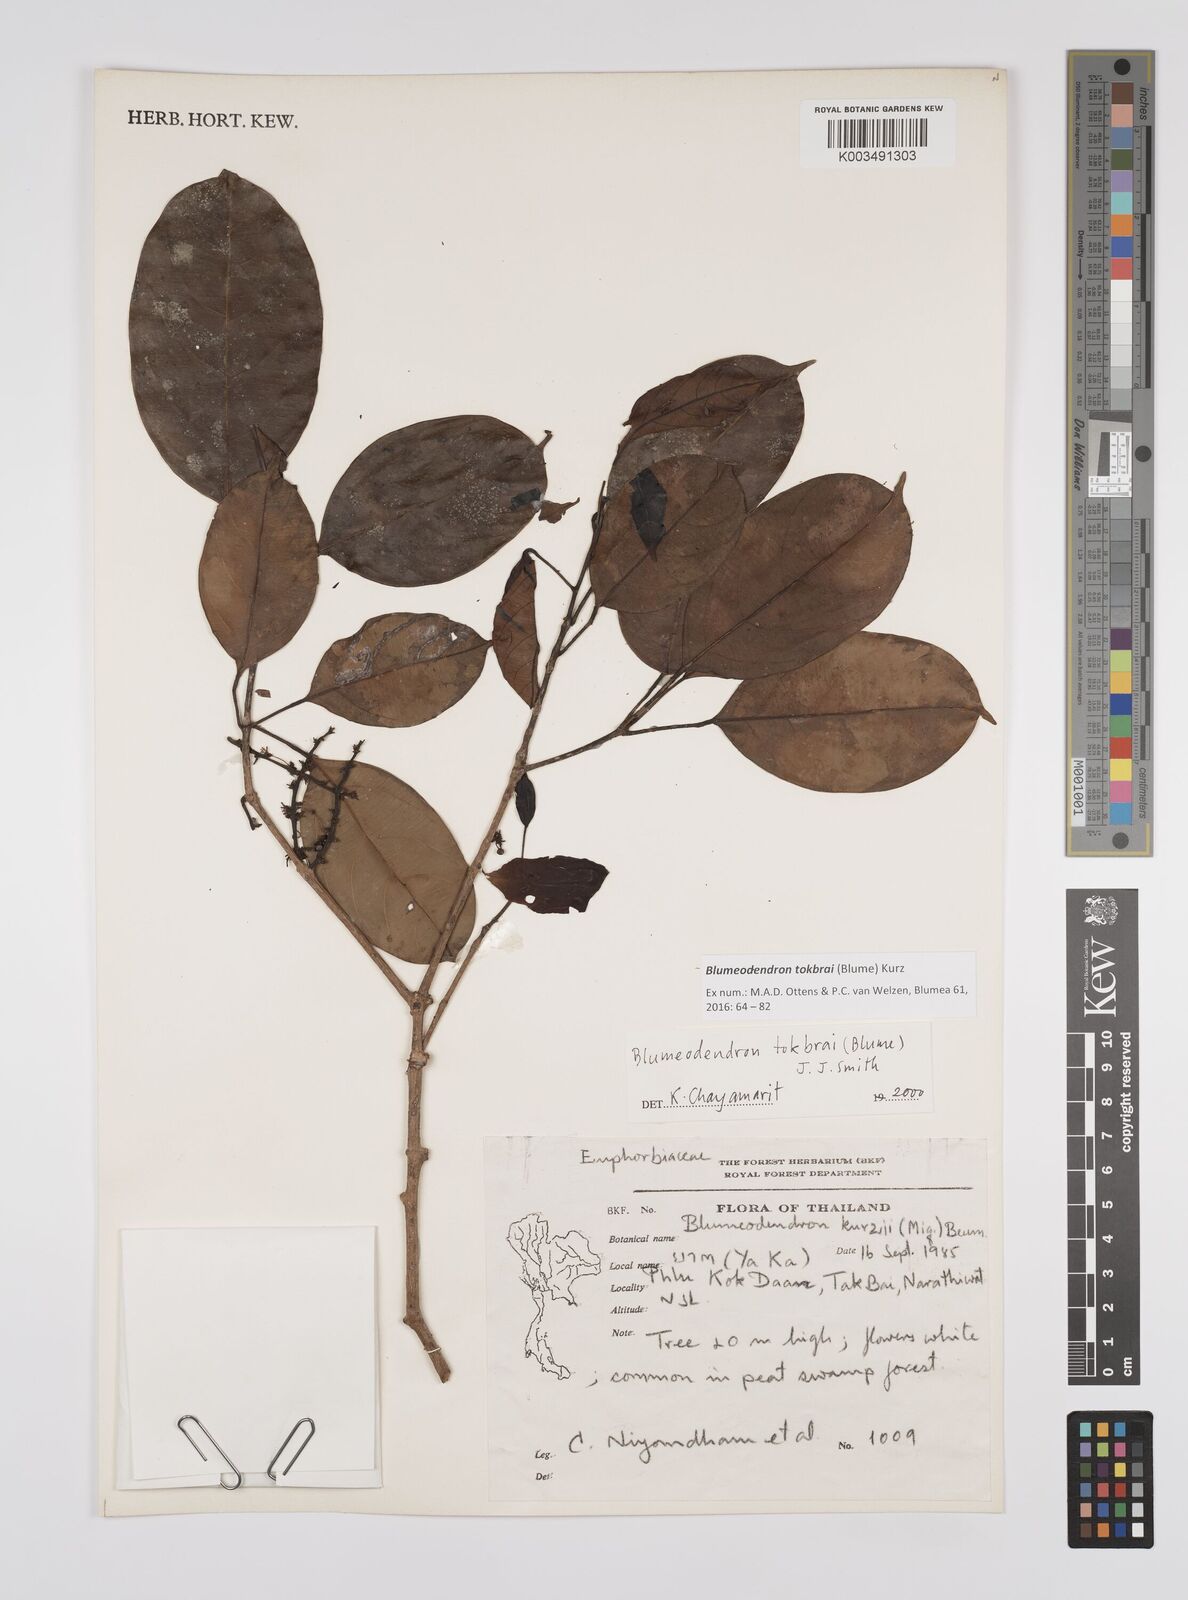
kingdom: Plantae
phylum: Tracheophyta
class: Magnoliopsida
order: Malpighiales
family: Euphorbiaceae
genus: Blumeodendron
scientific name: Blumeodendron tokbrai
